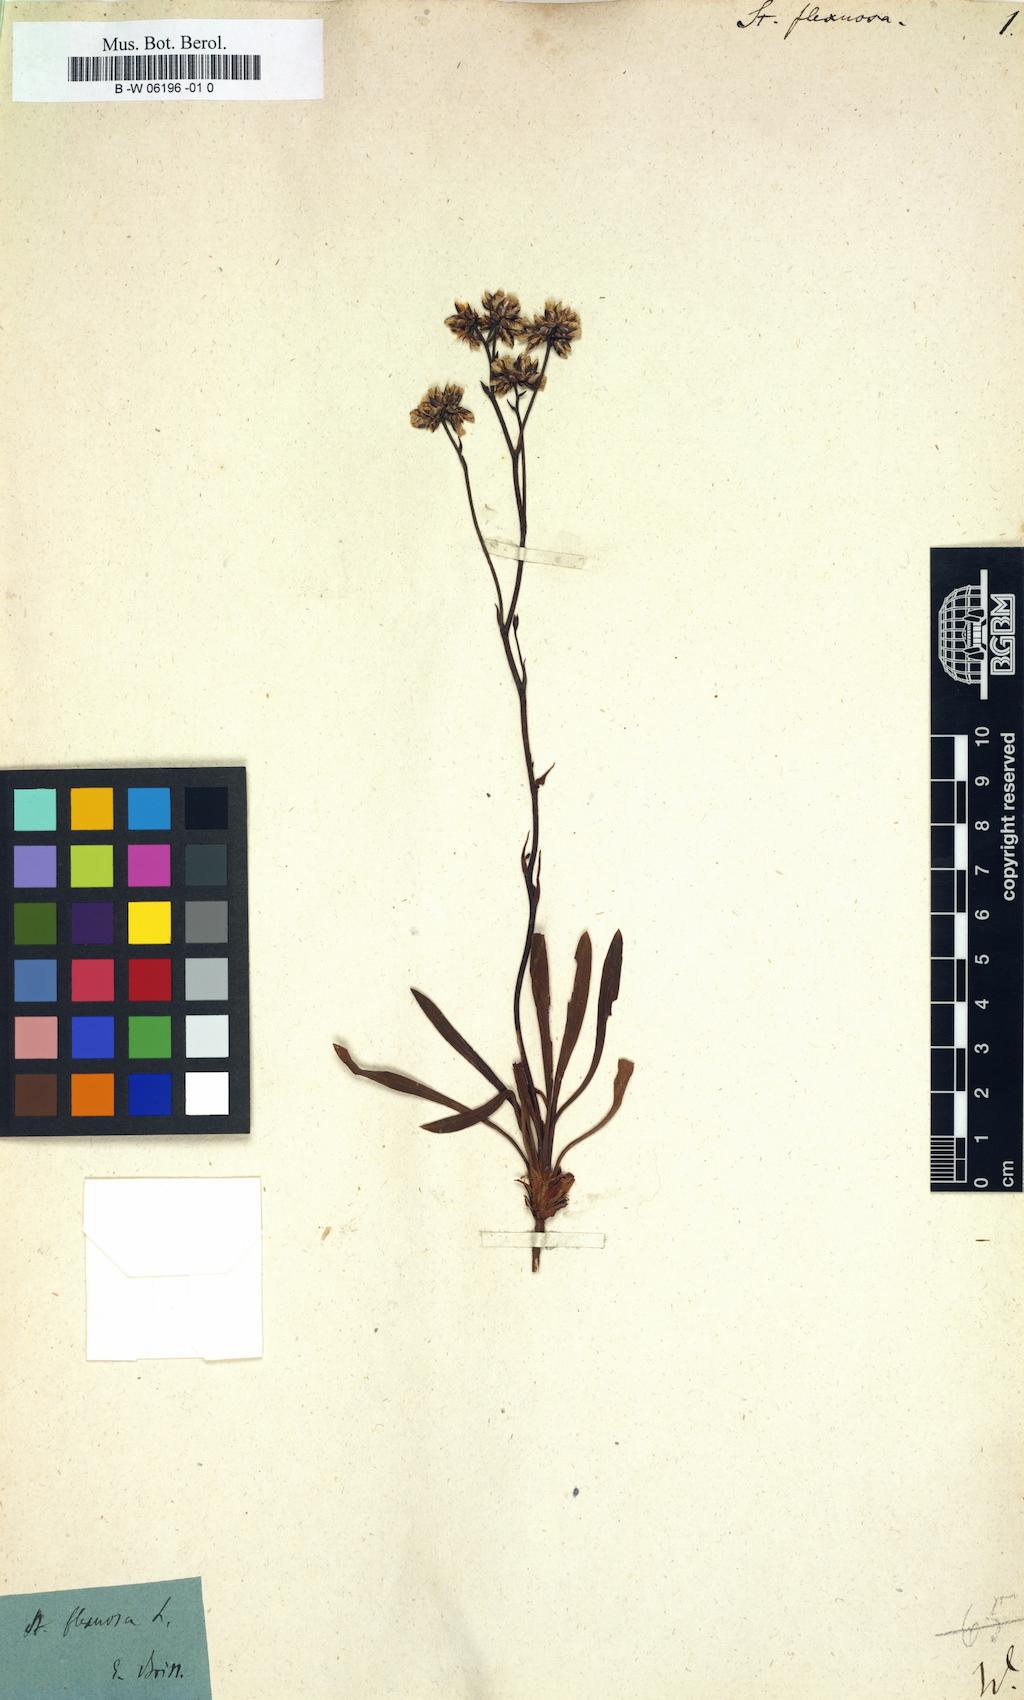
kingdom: Plantae
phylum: Tracheophyta
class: Magnoliopsida
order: Caryophyllales
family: Plumbaginaceae
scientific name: Plumbaginaceae
